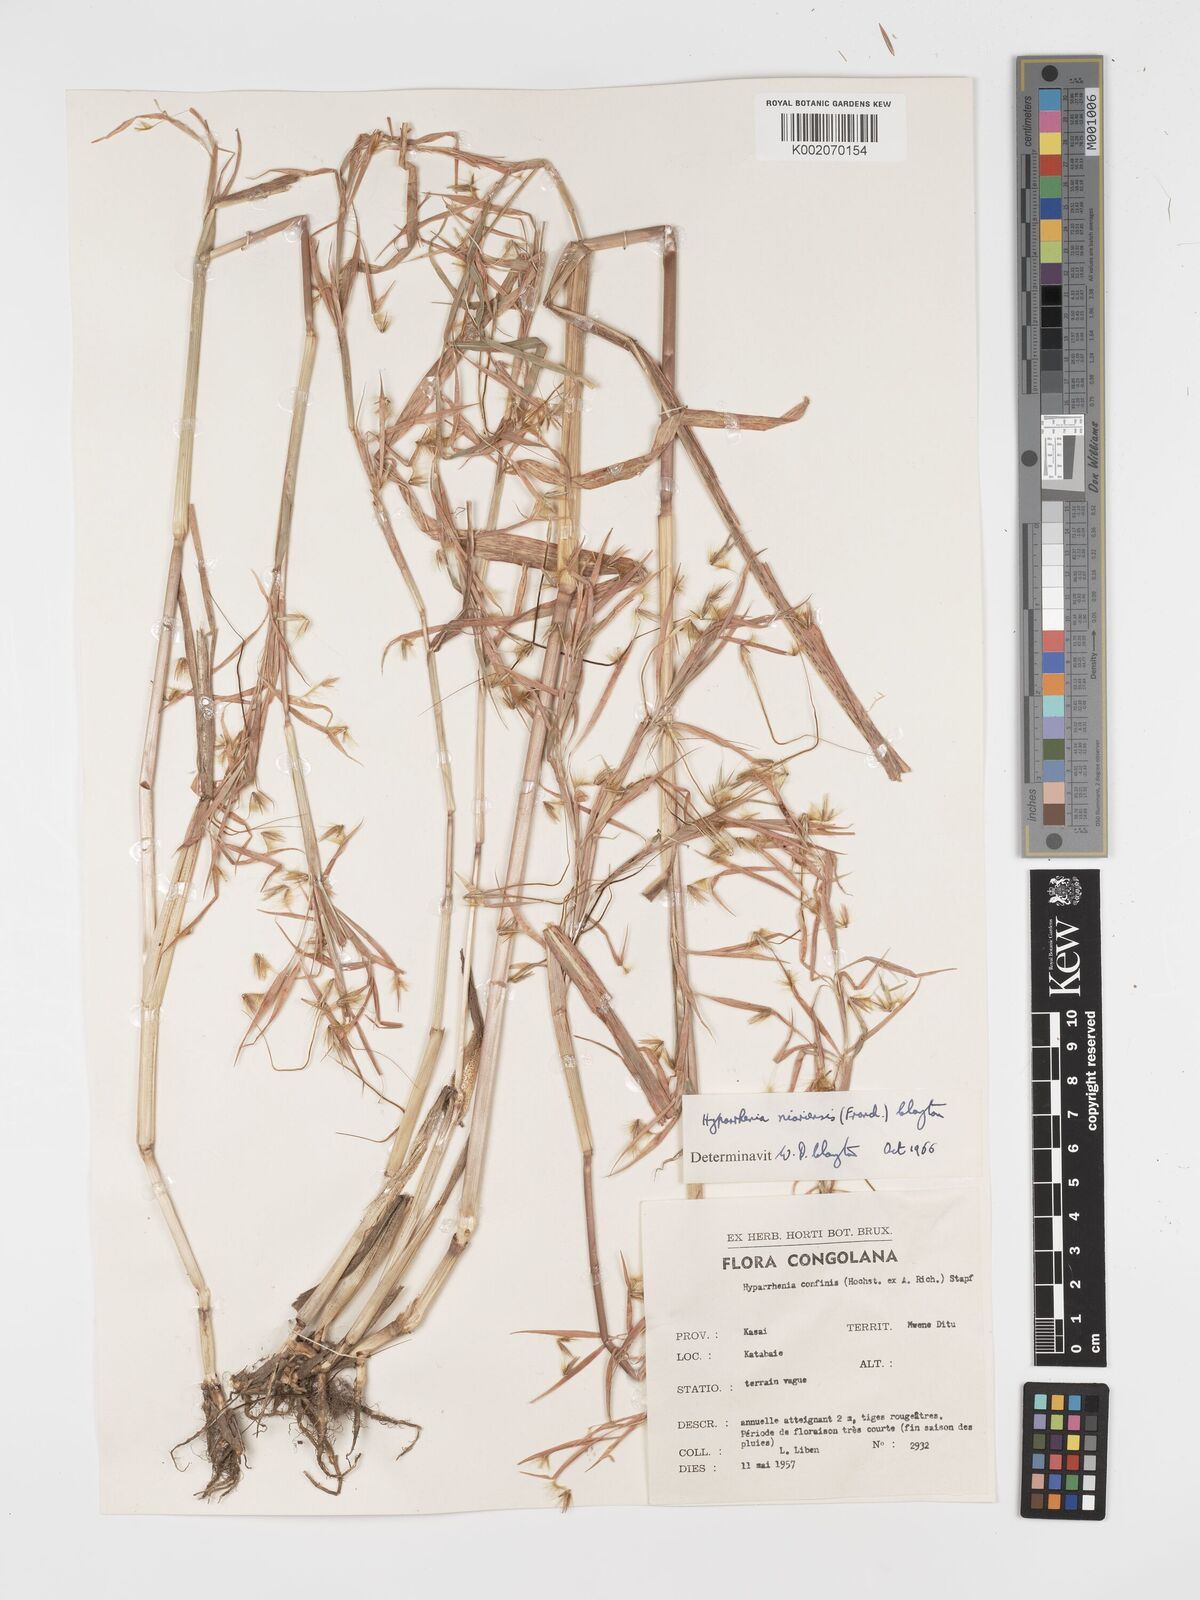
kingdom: Plantae
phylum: Tracheophyta
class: Liliopsida
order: Poales
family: Poaceae
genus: Hyparrhenia
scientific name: Hyparrhenia niariensis
